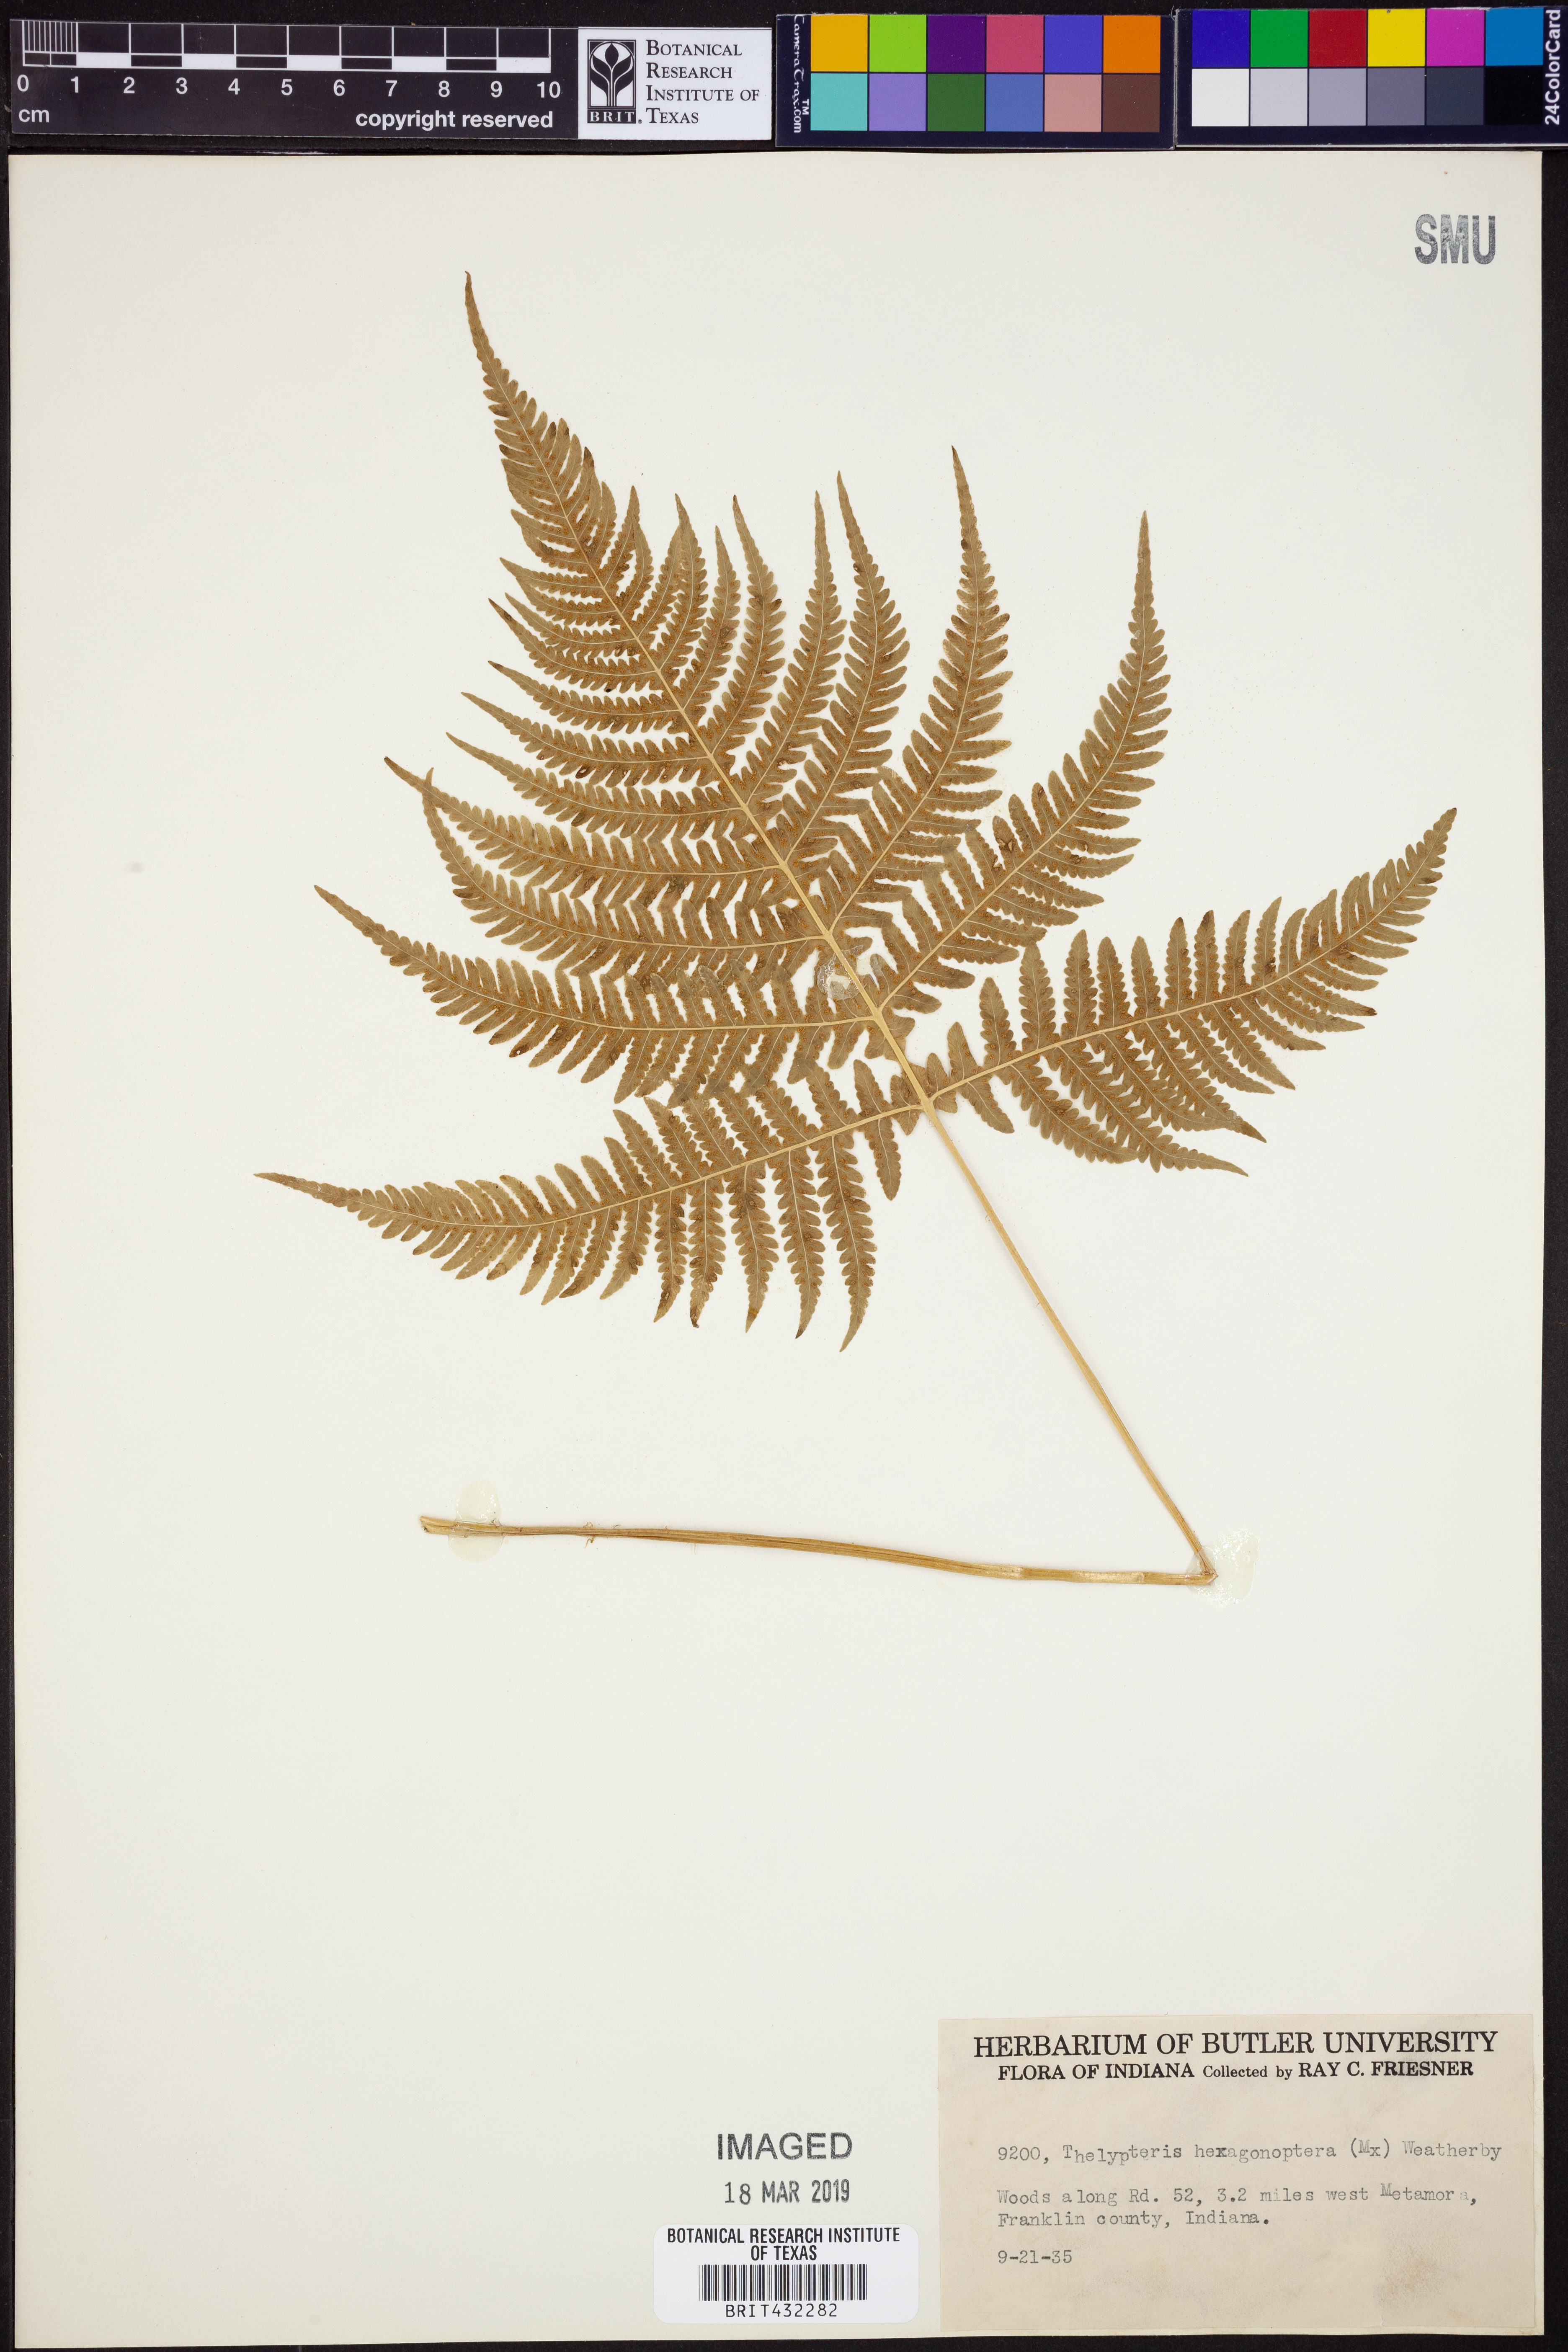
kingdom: Plantae
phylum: Tracheophyta
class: Polypodiopsida
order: Polypodiales
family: Thelypteridaceae
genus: Phegopteris
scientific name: Phegopteris hexagonoptera
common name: Broad beech fern
